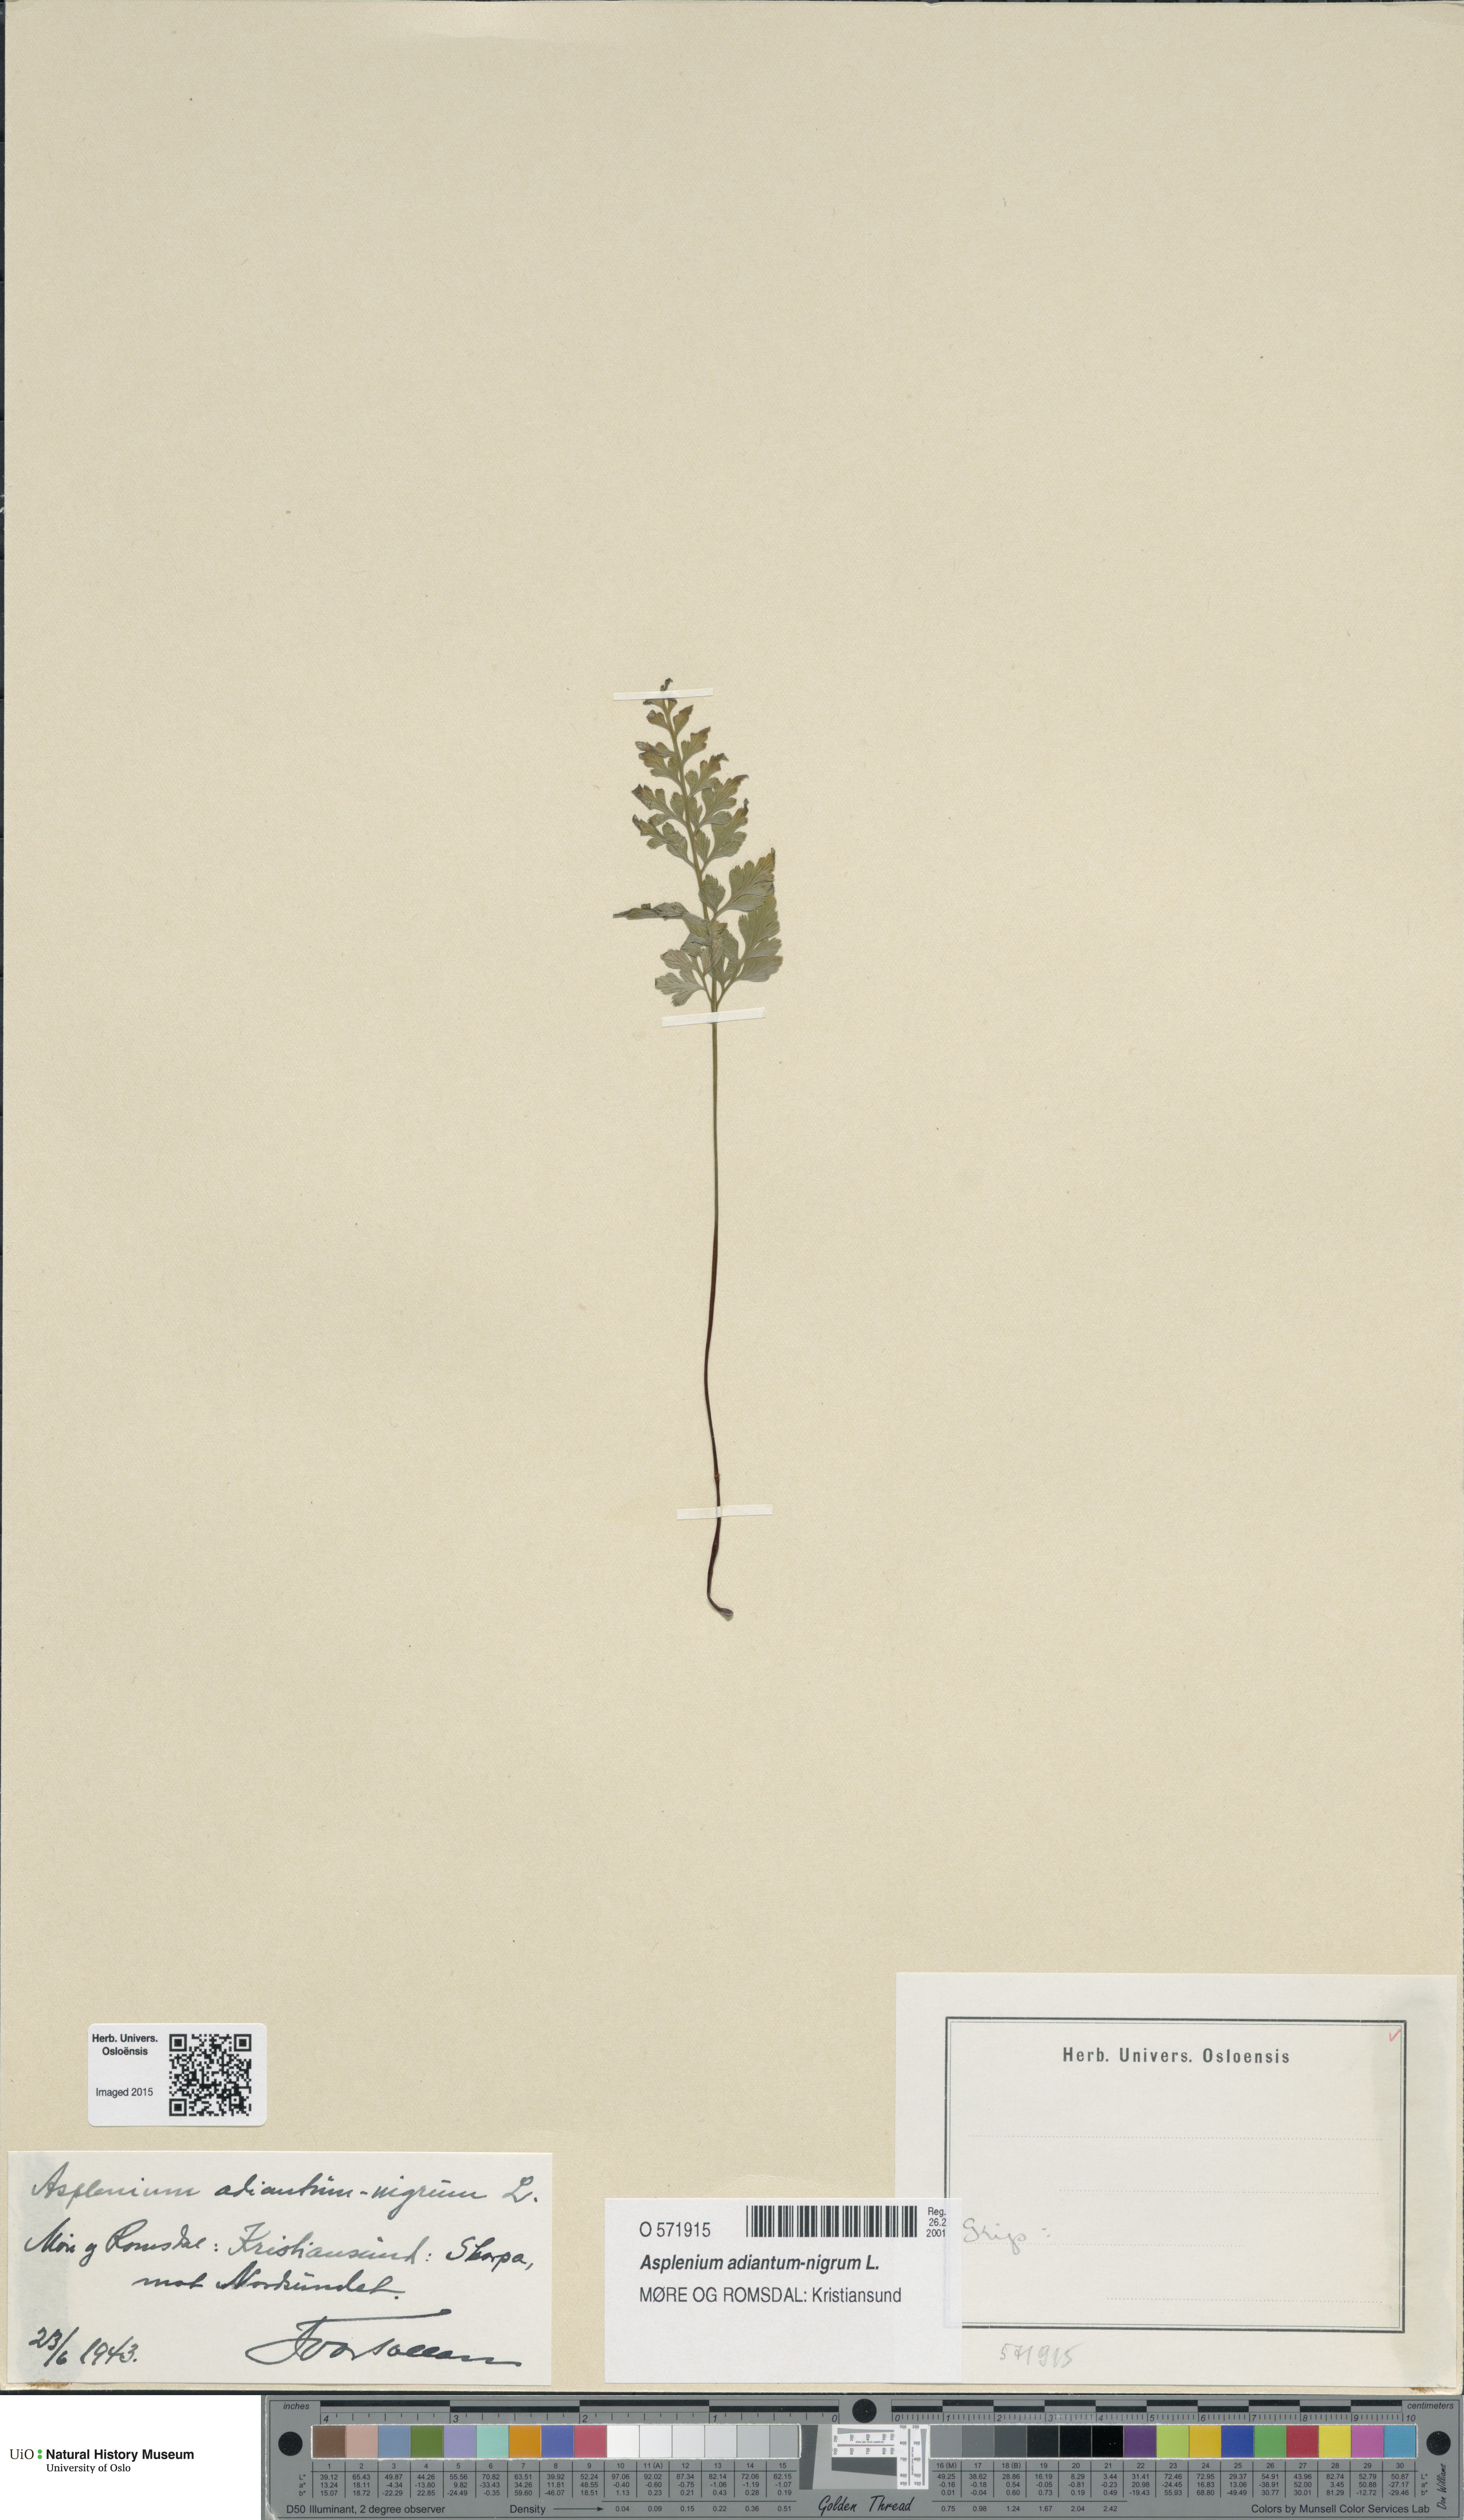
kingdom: Plantae
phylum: Tracheophyta
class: Polypodiopsida
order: Polypodiales
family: Aspleniaceae
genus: Asplenium
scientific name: Asplenium adiantum-nigrum
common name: Black spleenwort
